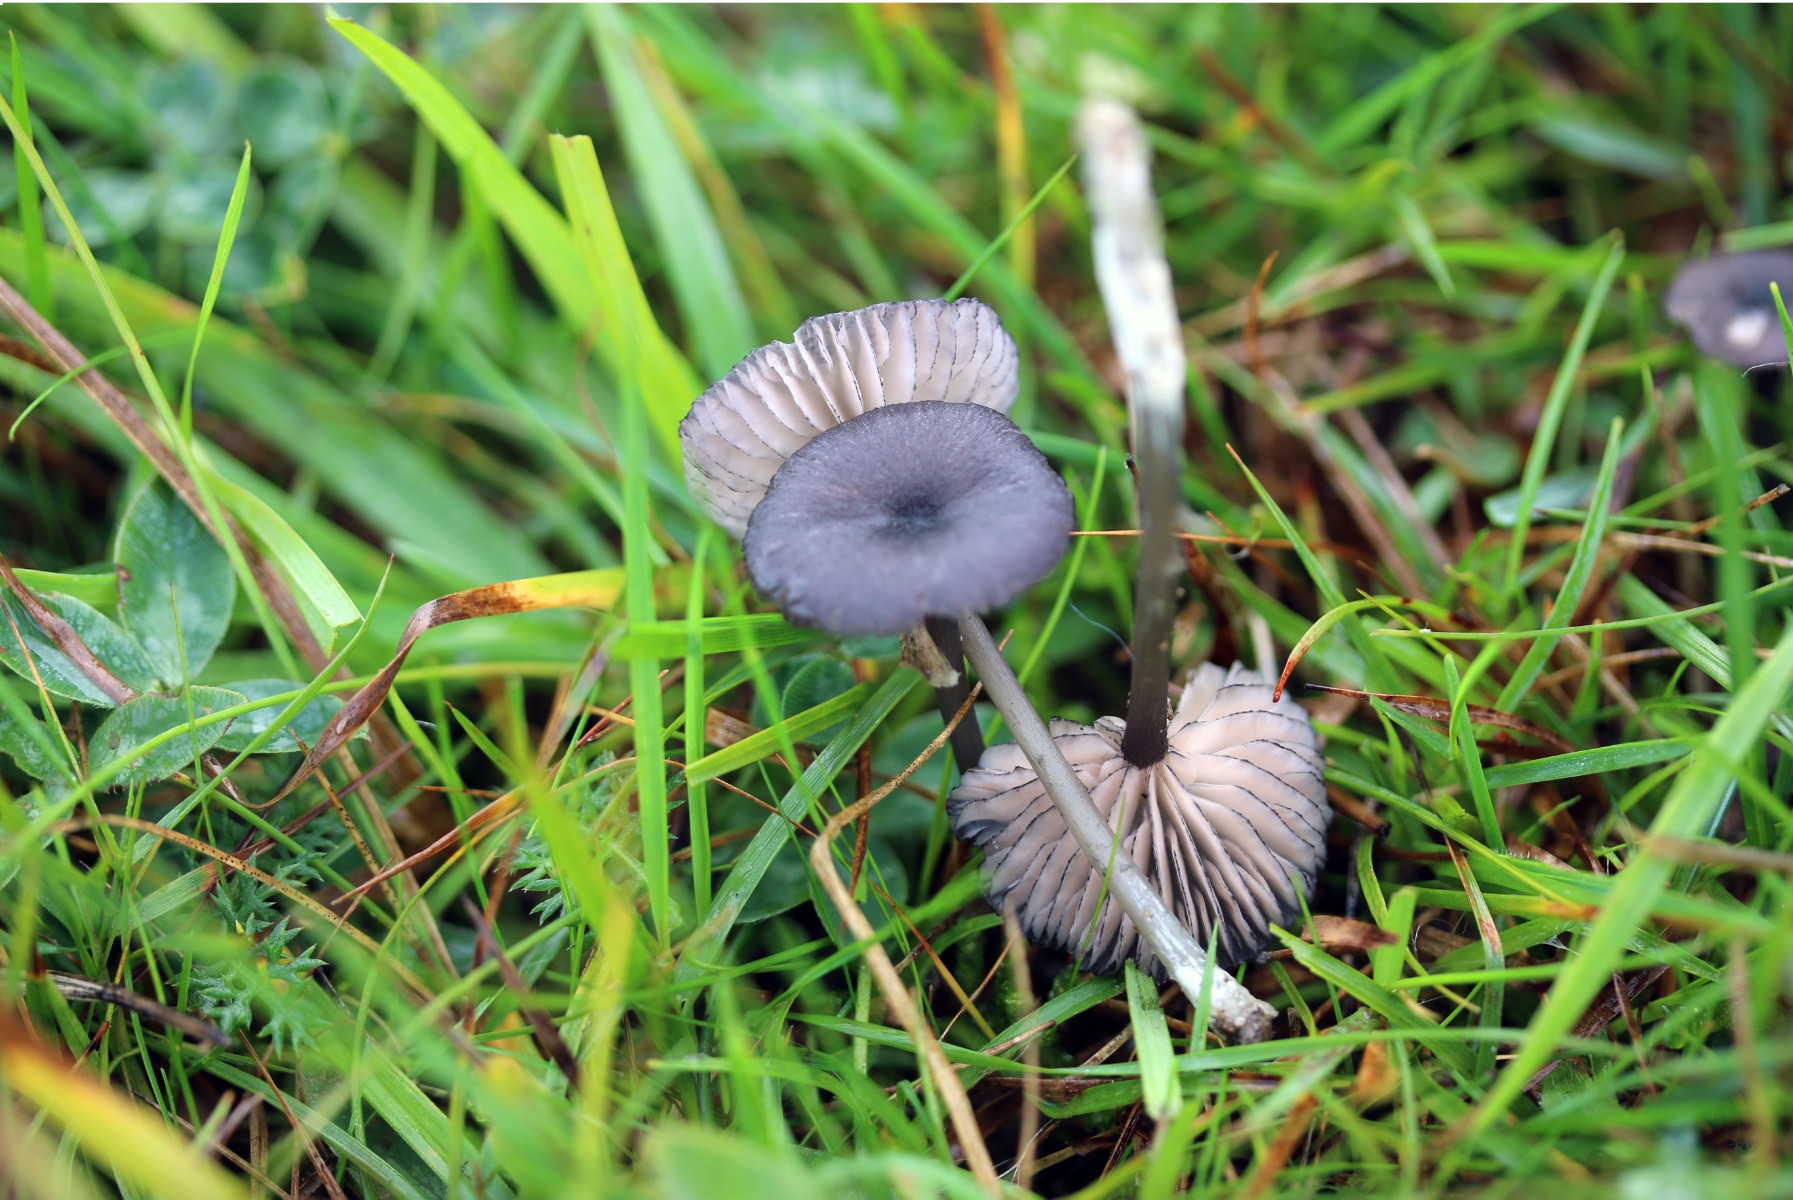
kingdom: Fungi
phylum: Basidiomycota
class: Agaricomycetes
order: Agaricales
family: Entolomataceae
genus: Entoloma
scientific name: Entoloma
